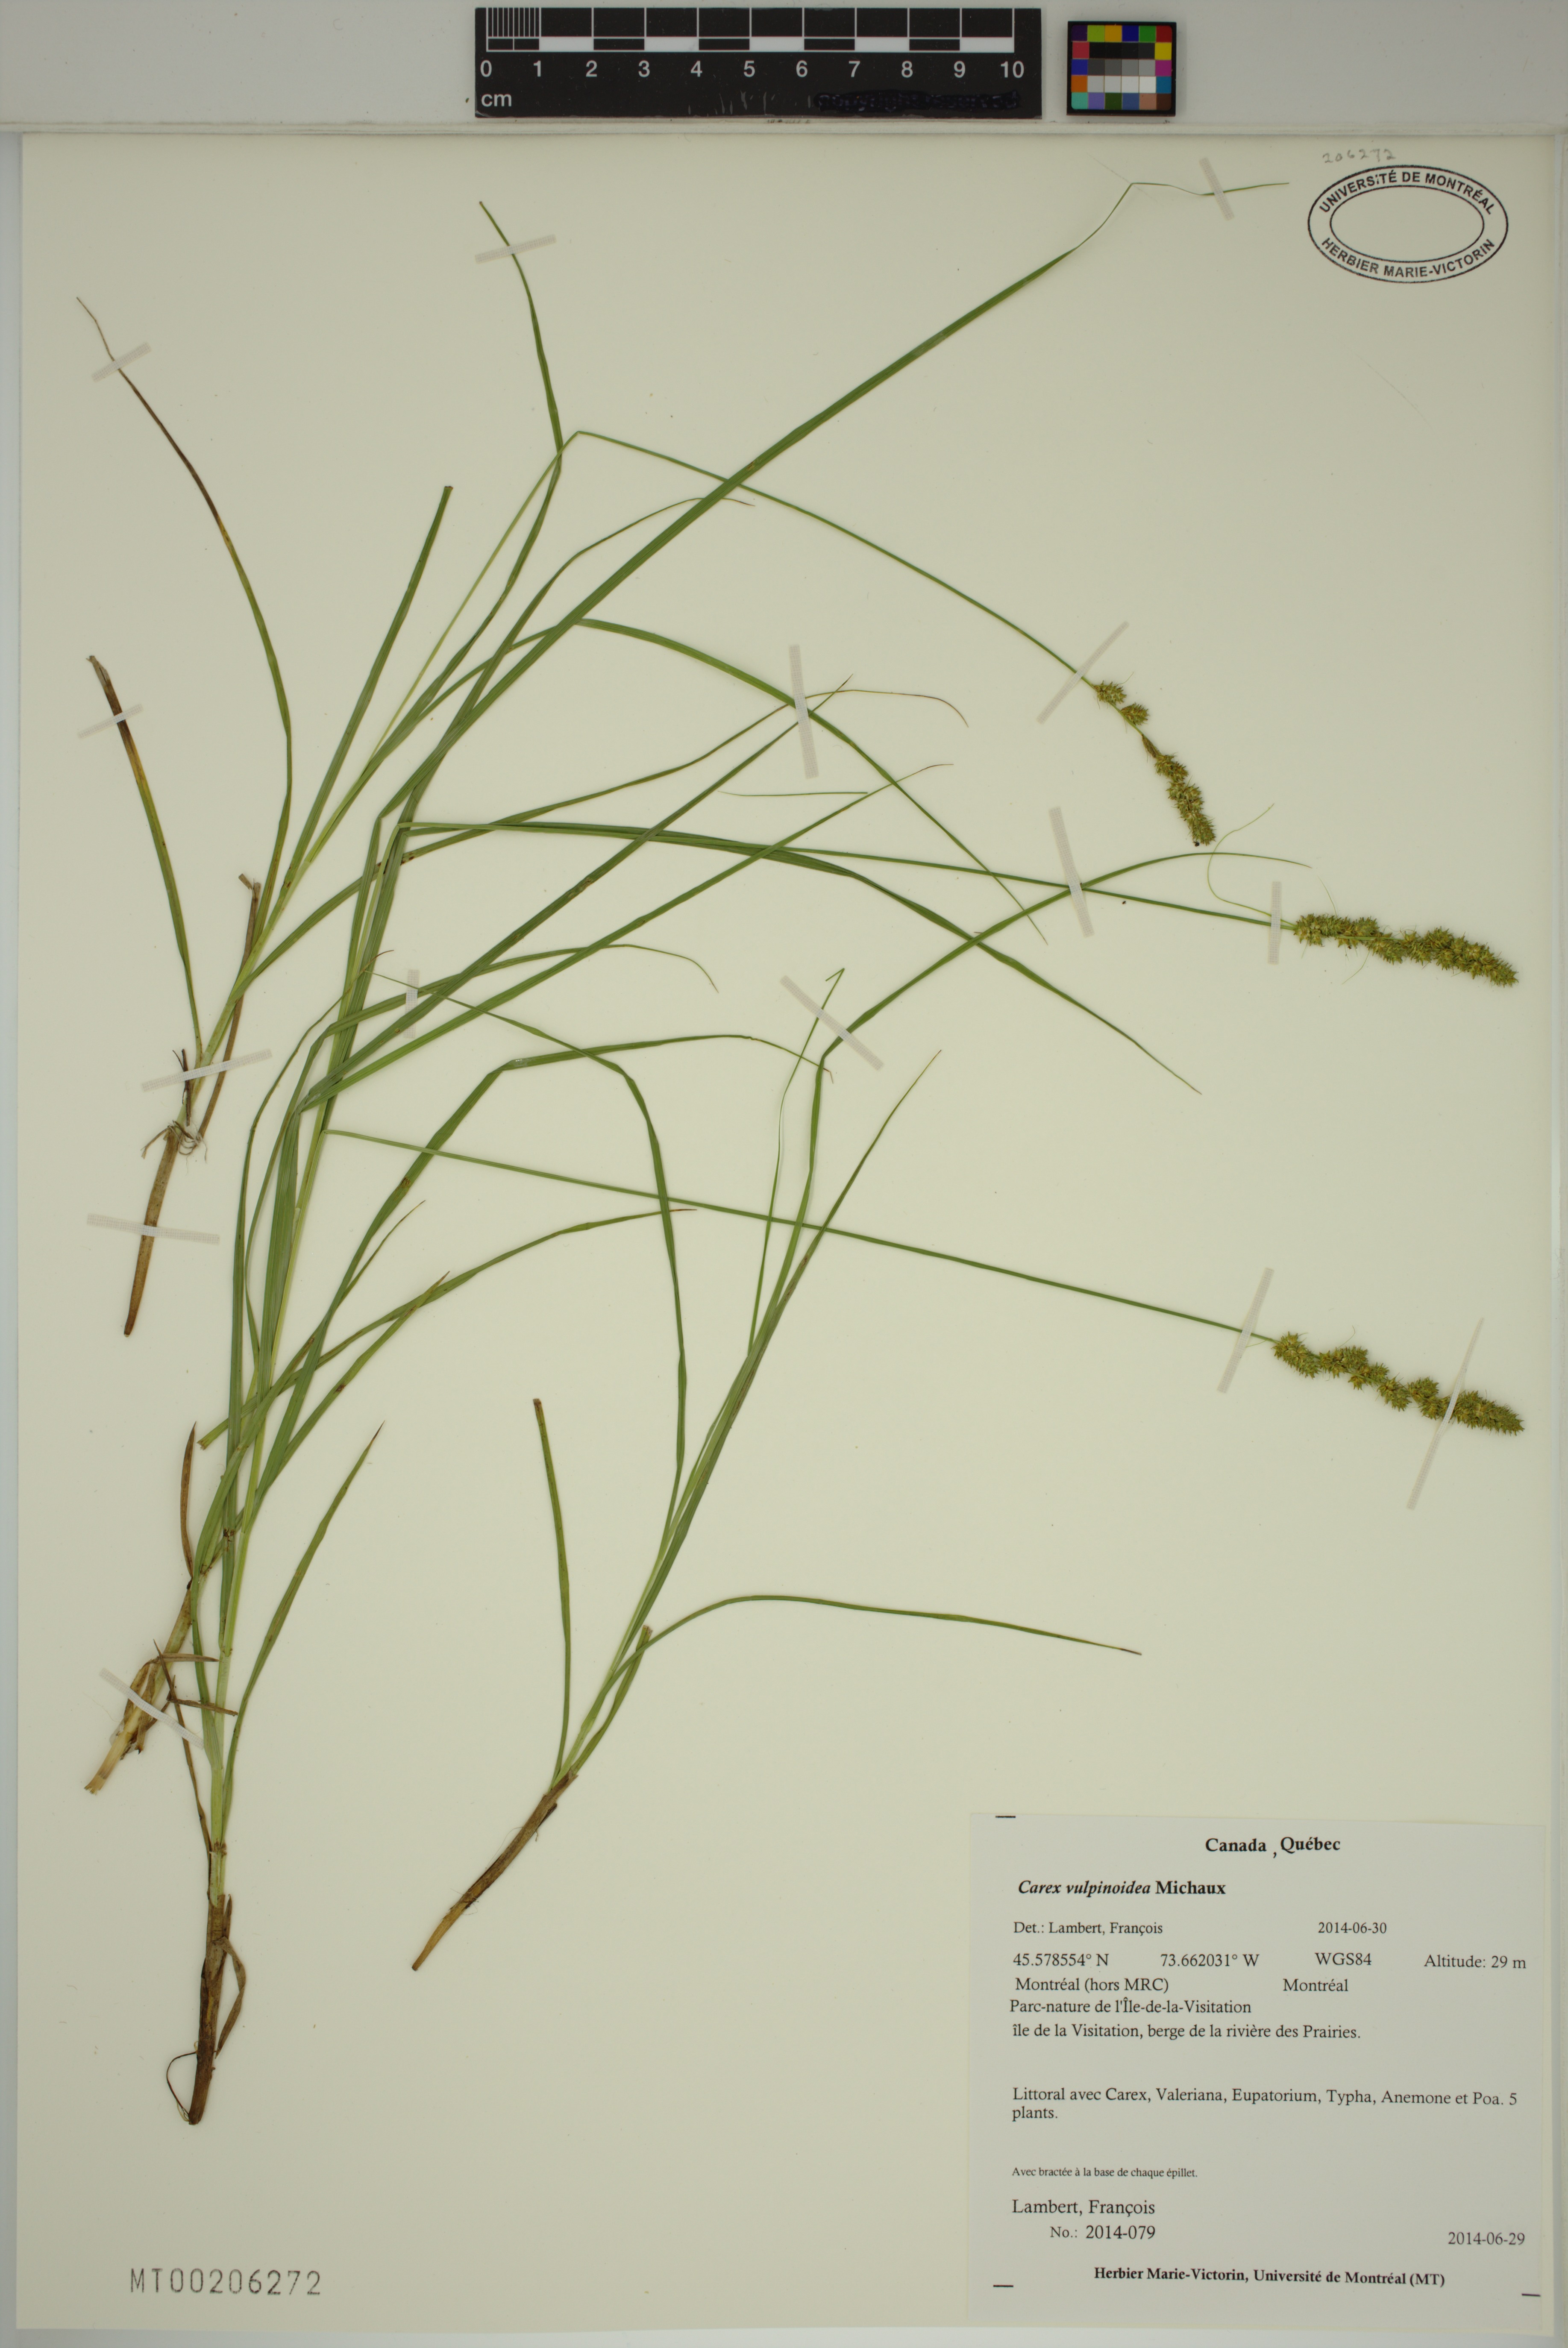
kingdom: Plantae
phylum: Tracheophyta
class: Liliopsida
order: Poales
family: Cyperaceae
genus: Carex
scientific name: Carex vulpinoidea
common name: American fox-sedge
